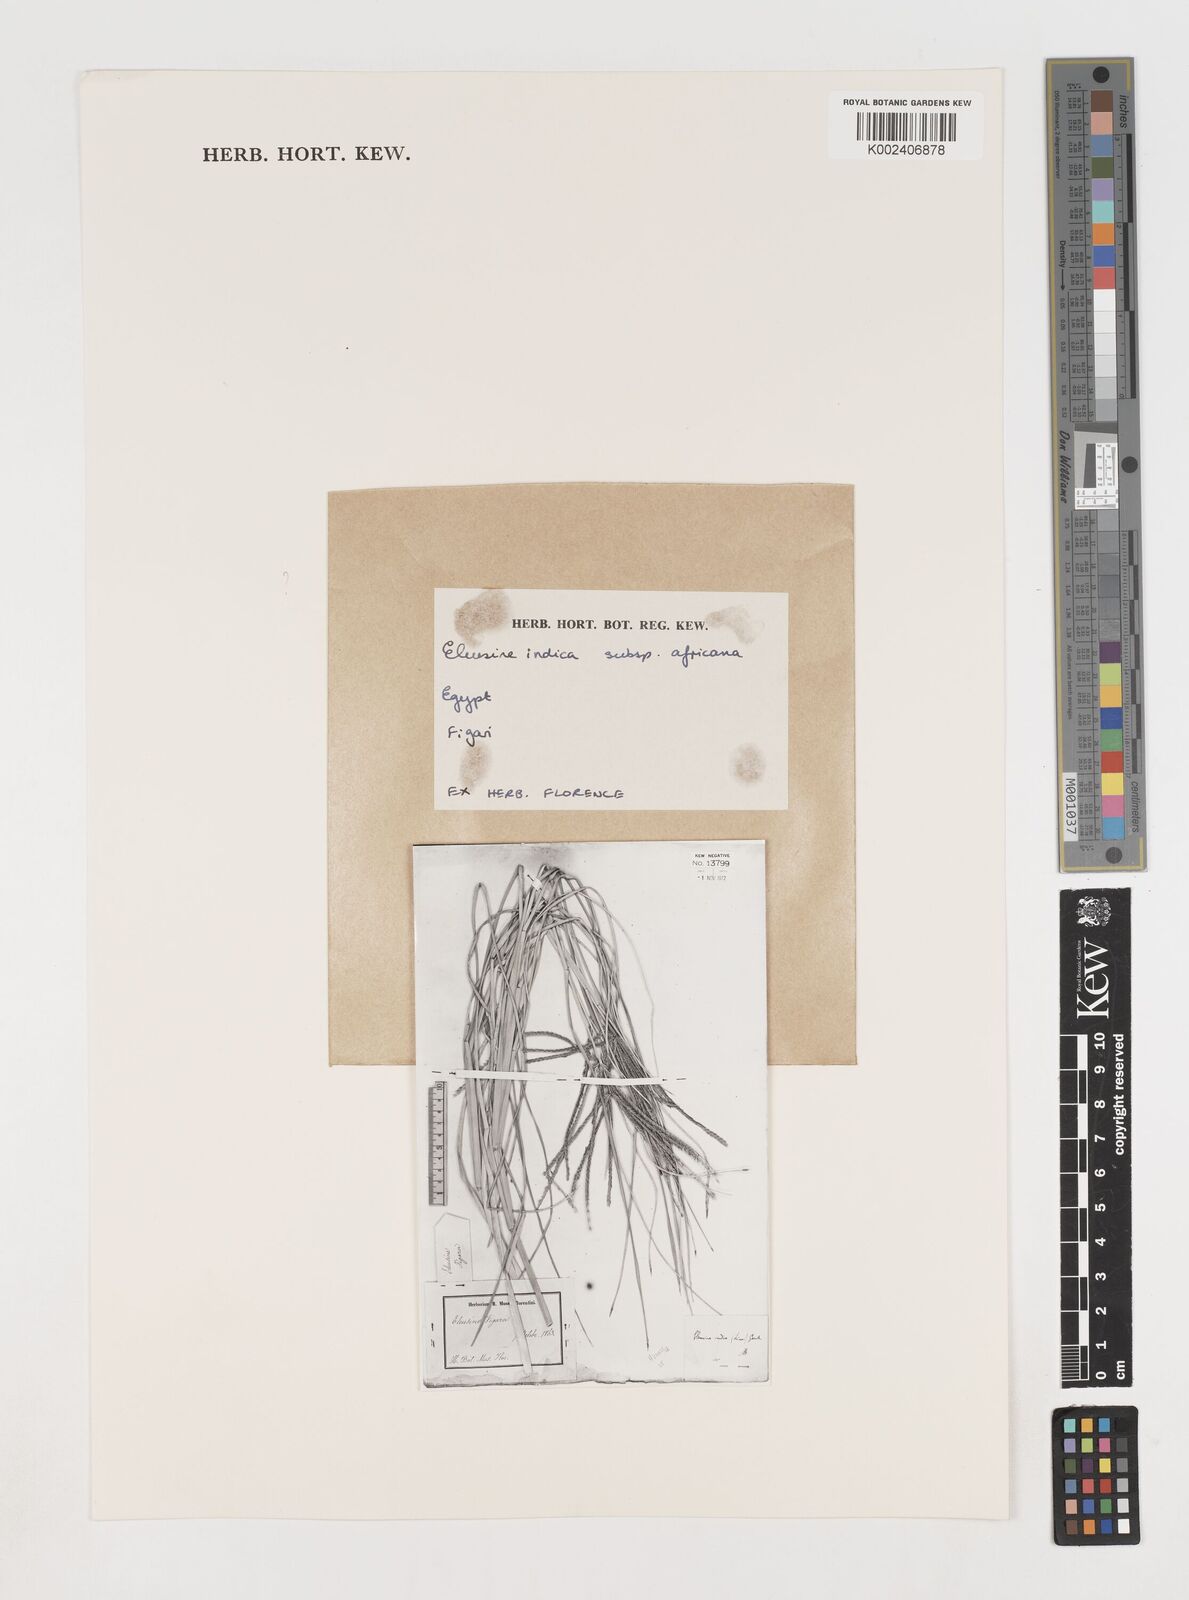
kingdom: Plantae
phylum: Tracheophyta
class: Liliopsida
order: Poales
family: Poaceae
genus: Eleusine
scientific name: Eleusine africana
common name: Wild african finger millet
